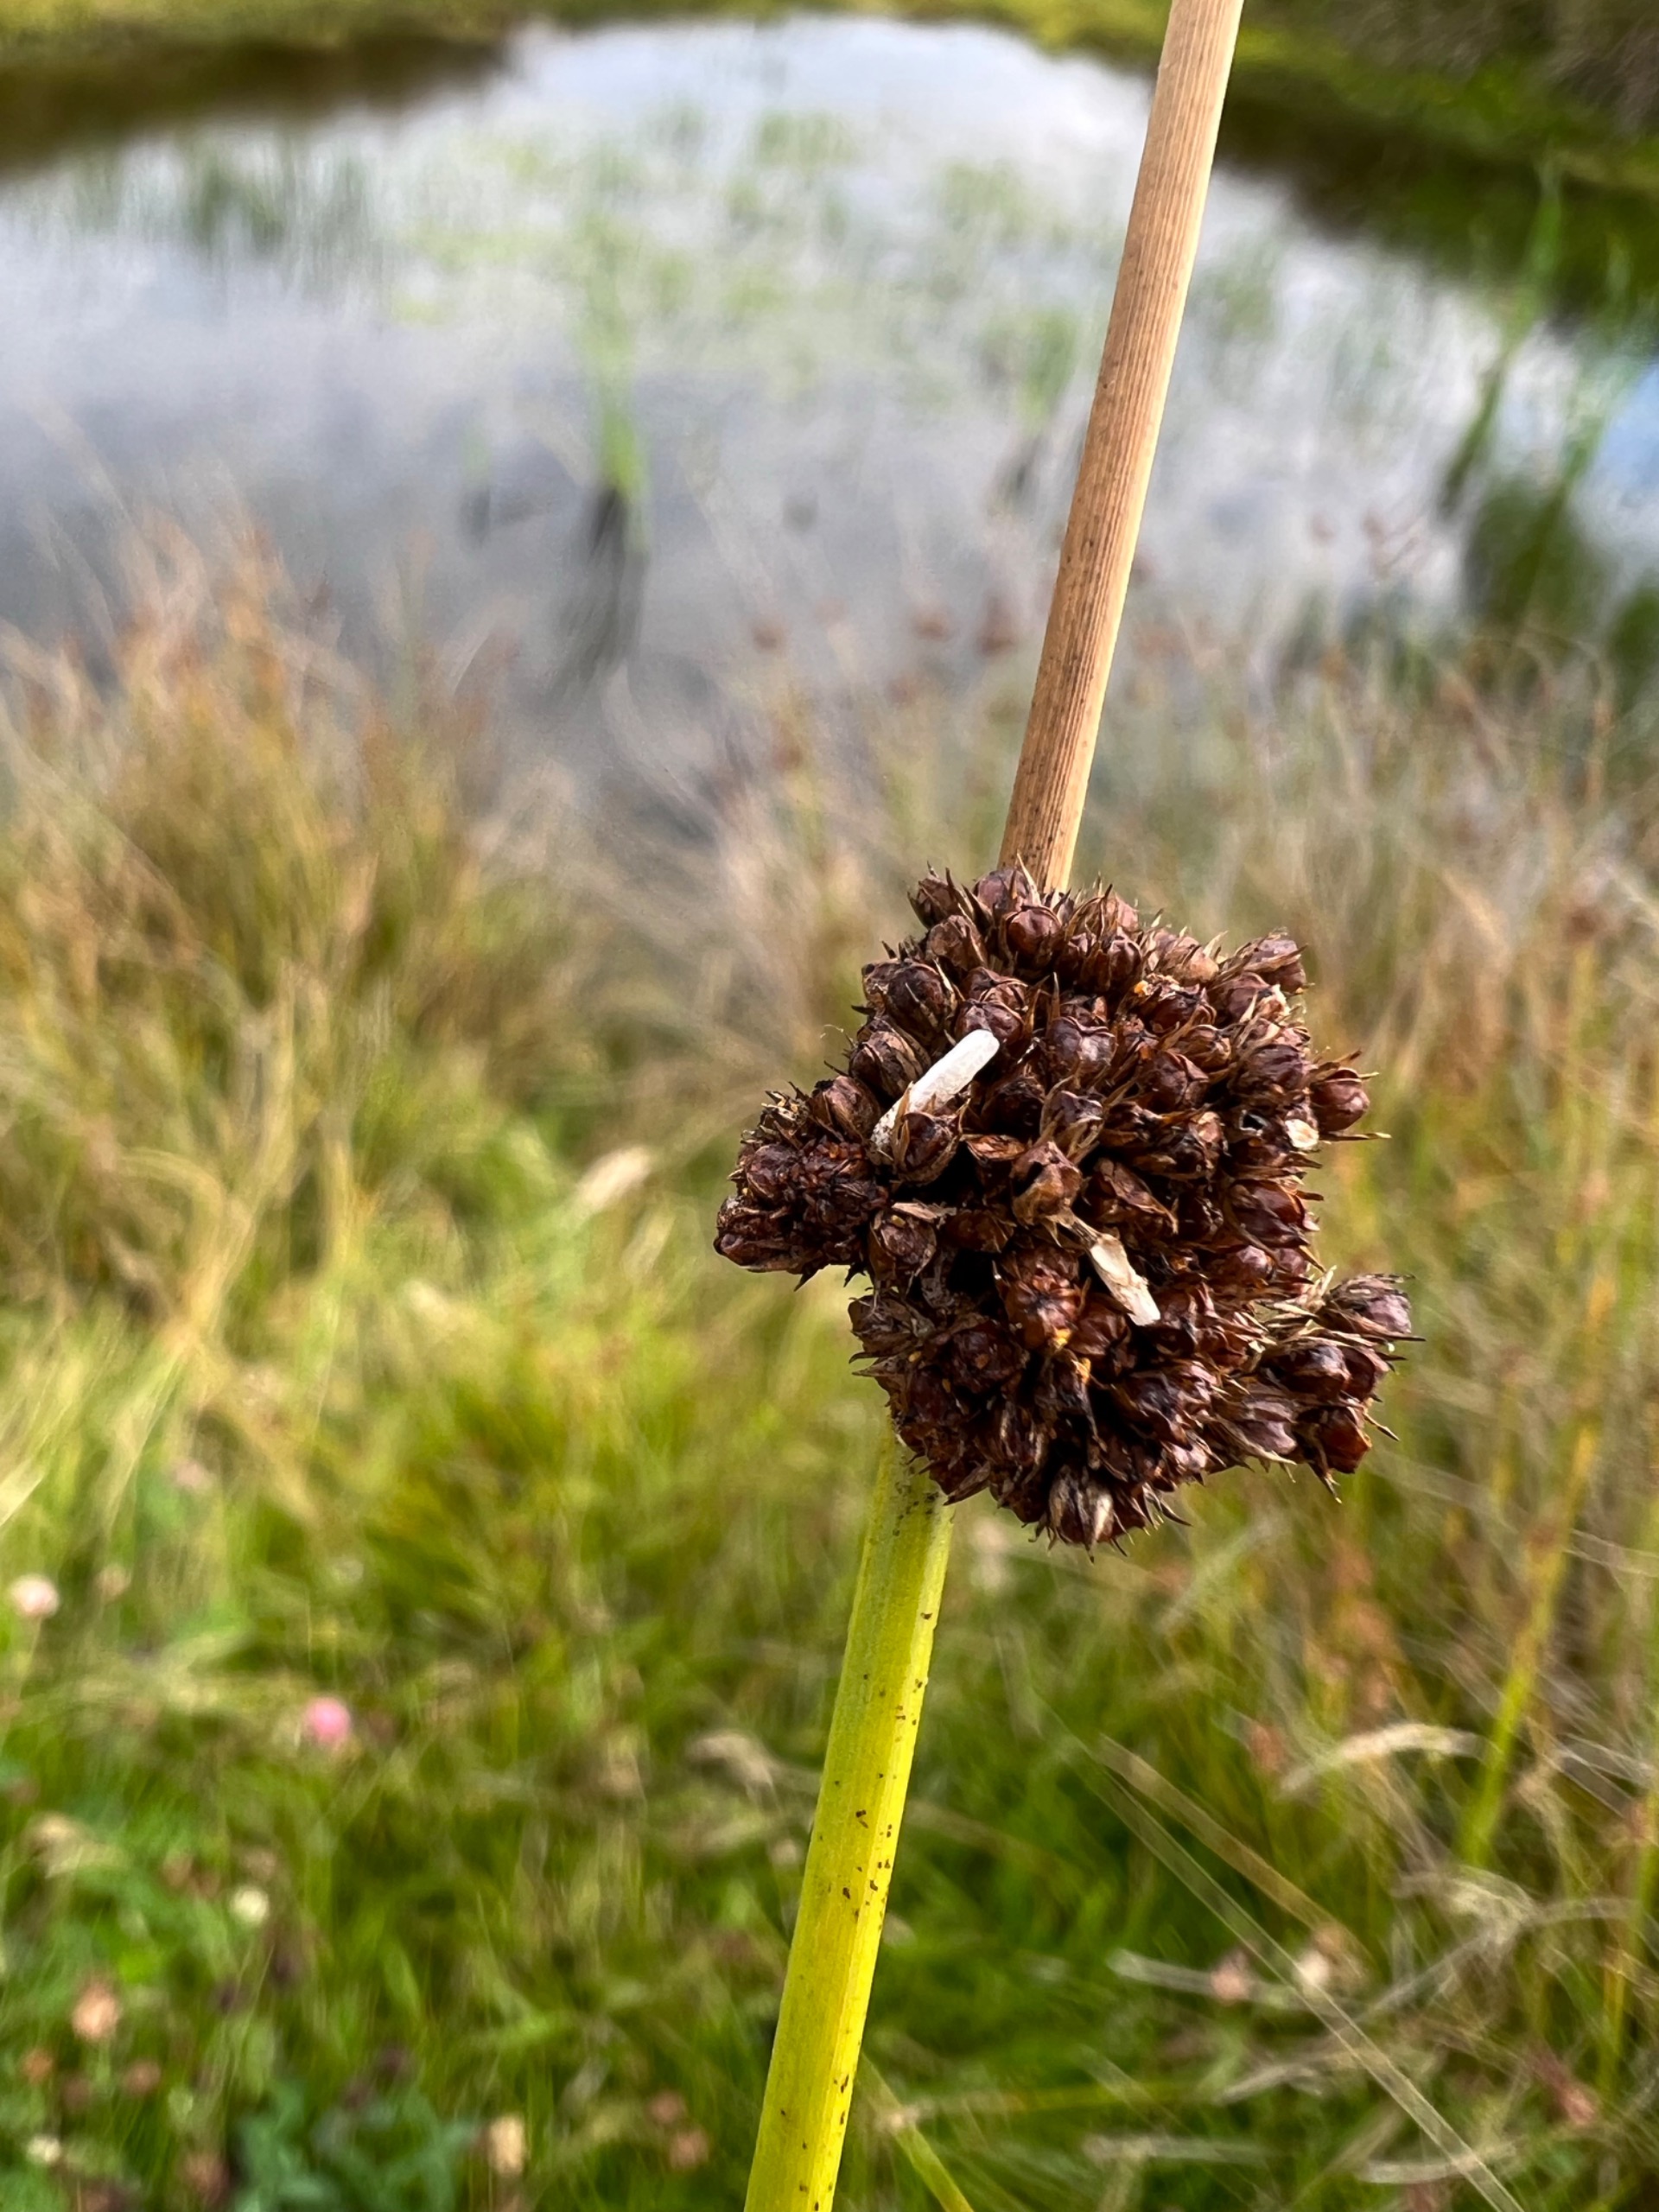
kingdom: Plantae
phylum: Tracheophyta
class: Liliopsida
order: Poales
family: Juncaceae
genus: Juncus
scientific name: Juncus conglomeratus
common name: Knop-siv
